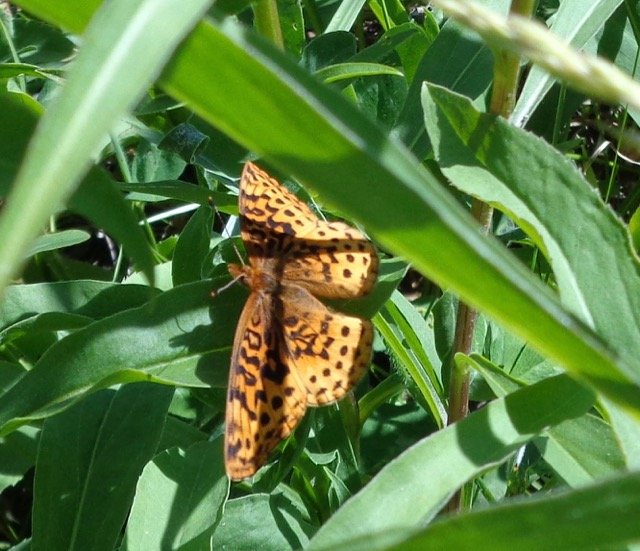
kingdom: Animalia
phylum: Arthropoda
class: Insecta
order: Lepidoptera
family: Nymphalidae
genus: Clossiana
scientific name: Clossiana toddi
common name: Meadow Fritillary
